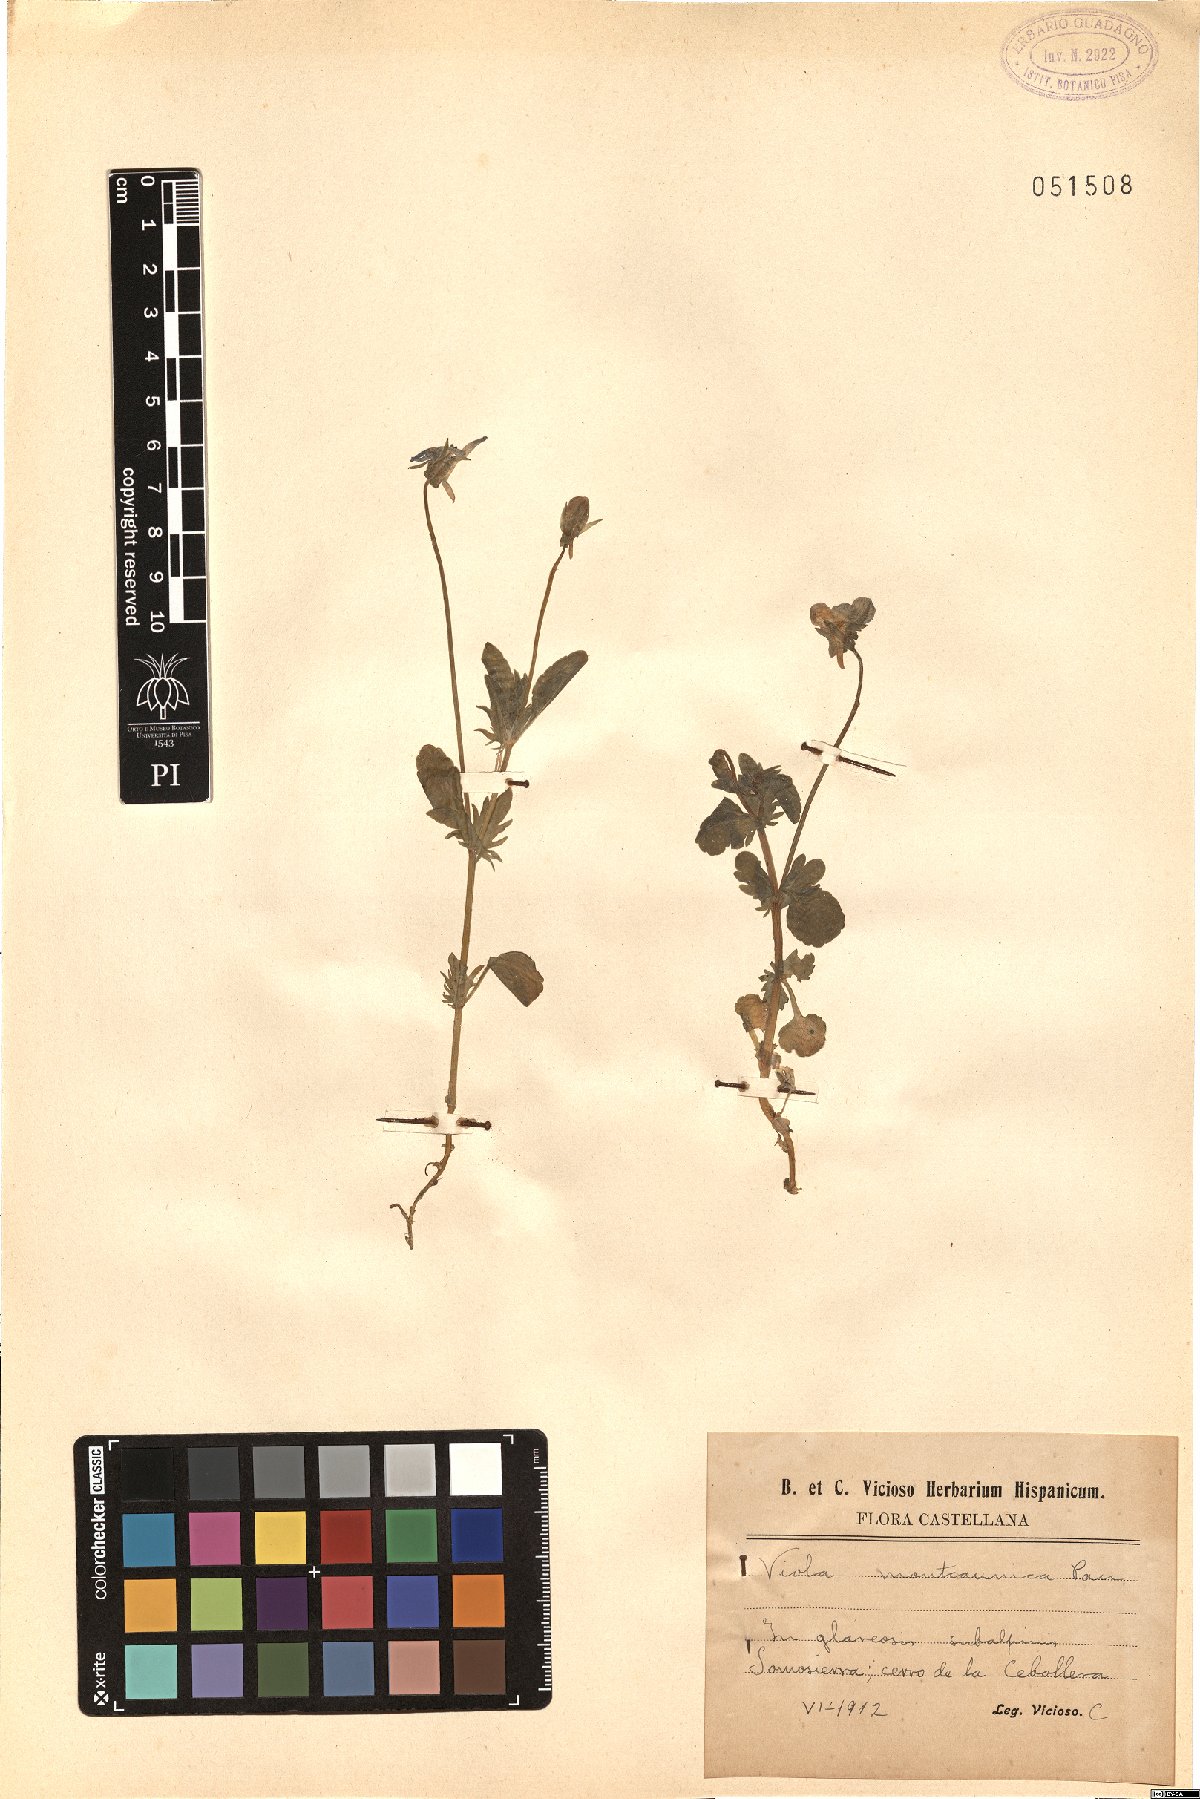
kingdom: Plantae
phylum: Tracheophyta
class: Magnoliopsida
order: Malpighiales
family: Violaceae
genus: Viola
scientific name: Viola montcaunica
